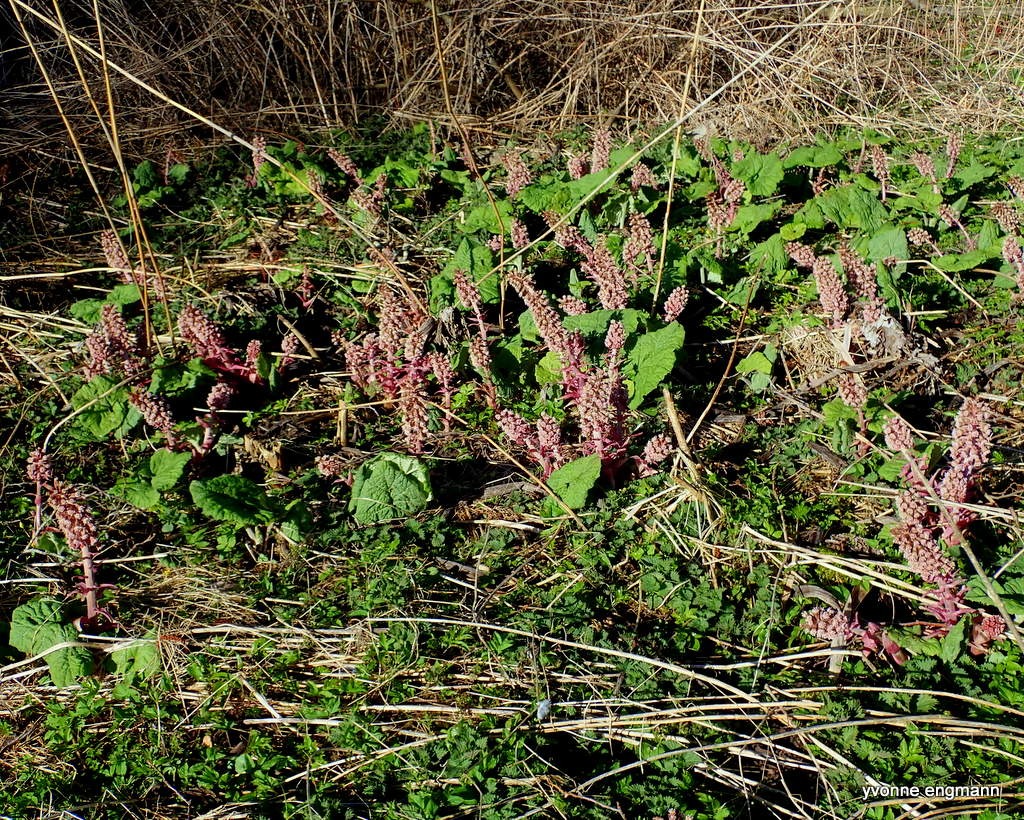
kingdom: Plantae
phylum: Tracheophyta
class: Magnoliopsida
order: Asterales
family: Asteraceae
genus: Petasites
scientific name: Petasites hybridus
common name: Rød hestehov
